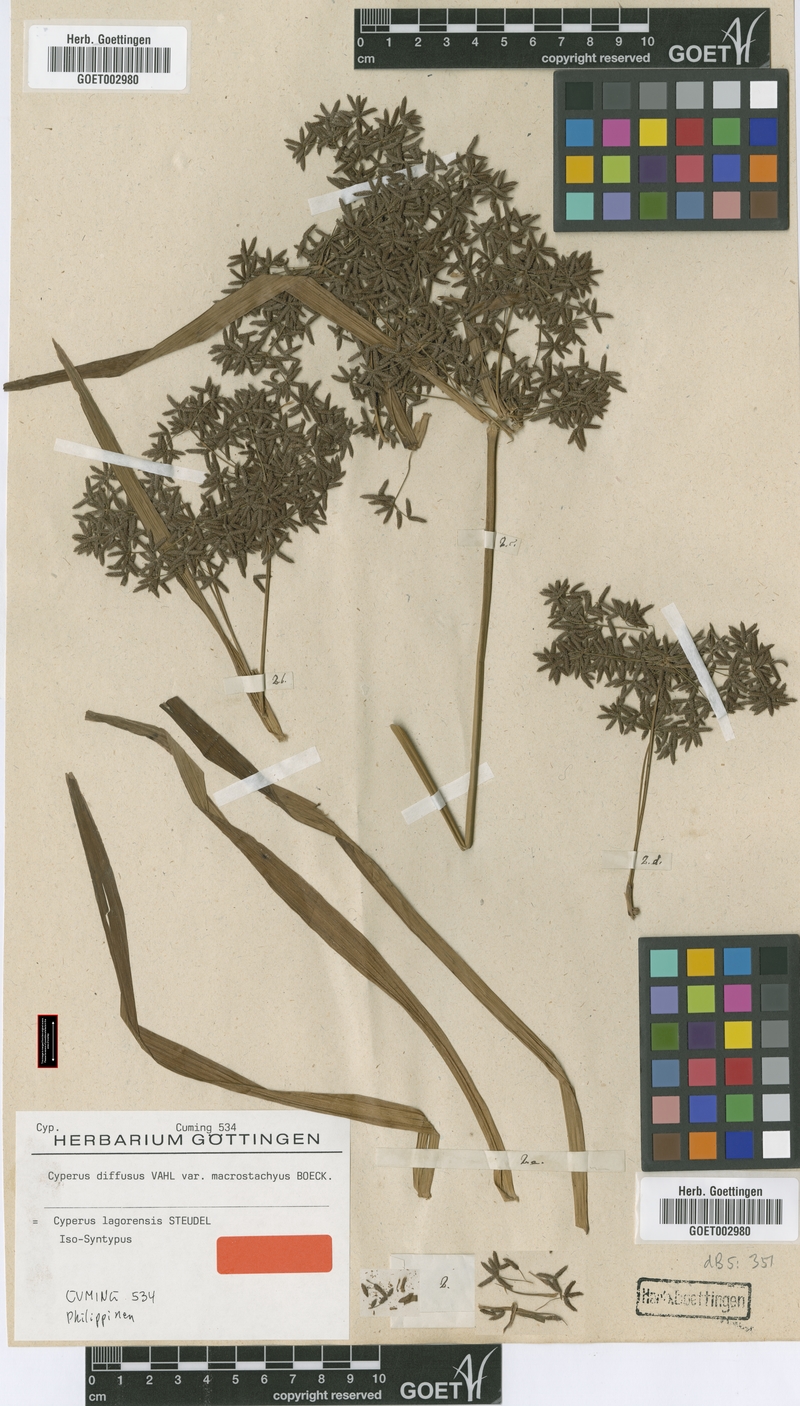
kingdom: Plantae
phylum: Tracheophyta
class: Liliopsida
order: Poales
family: Cyperaceae
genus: Cyperus
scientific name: Cyperus diffusus
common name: Dwarf umbrella grass
